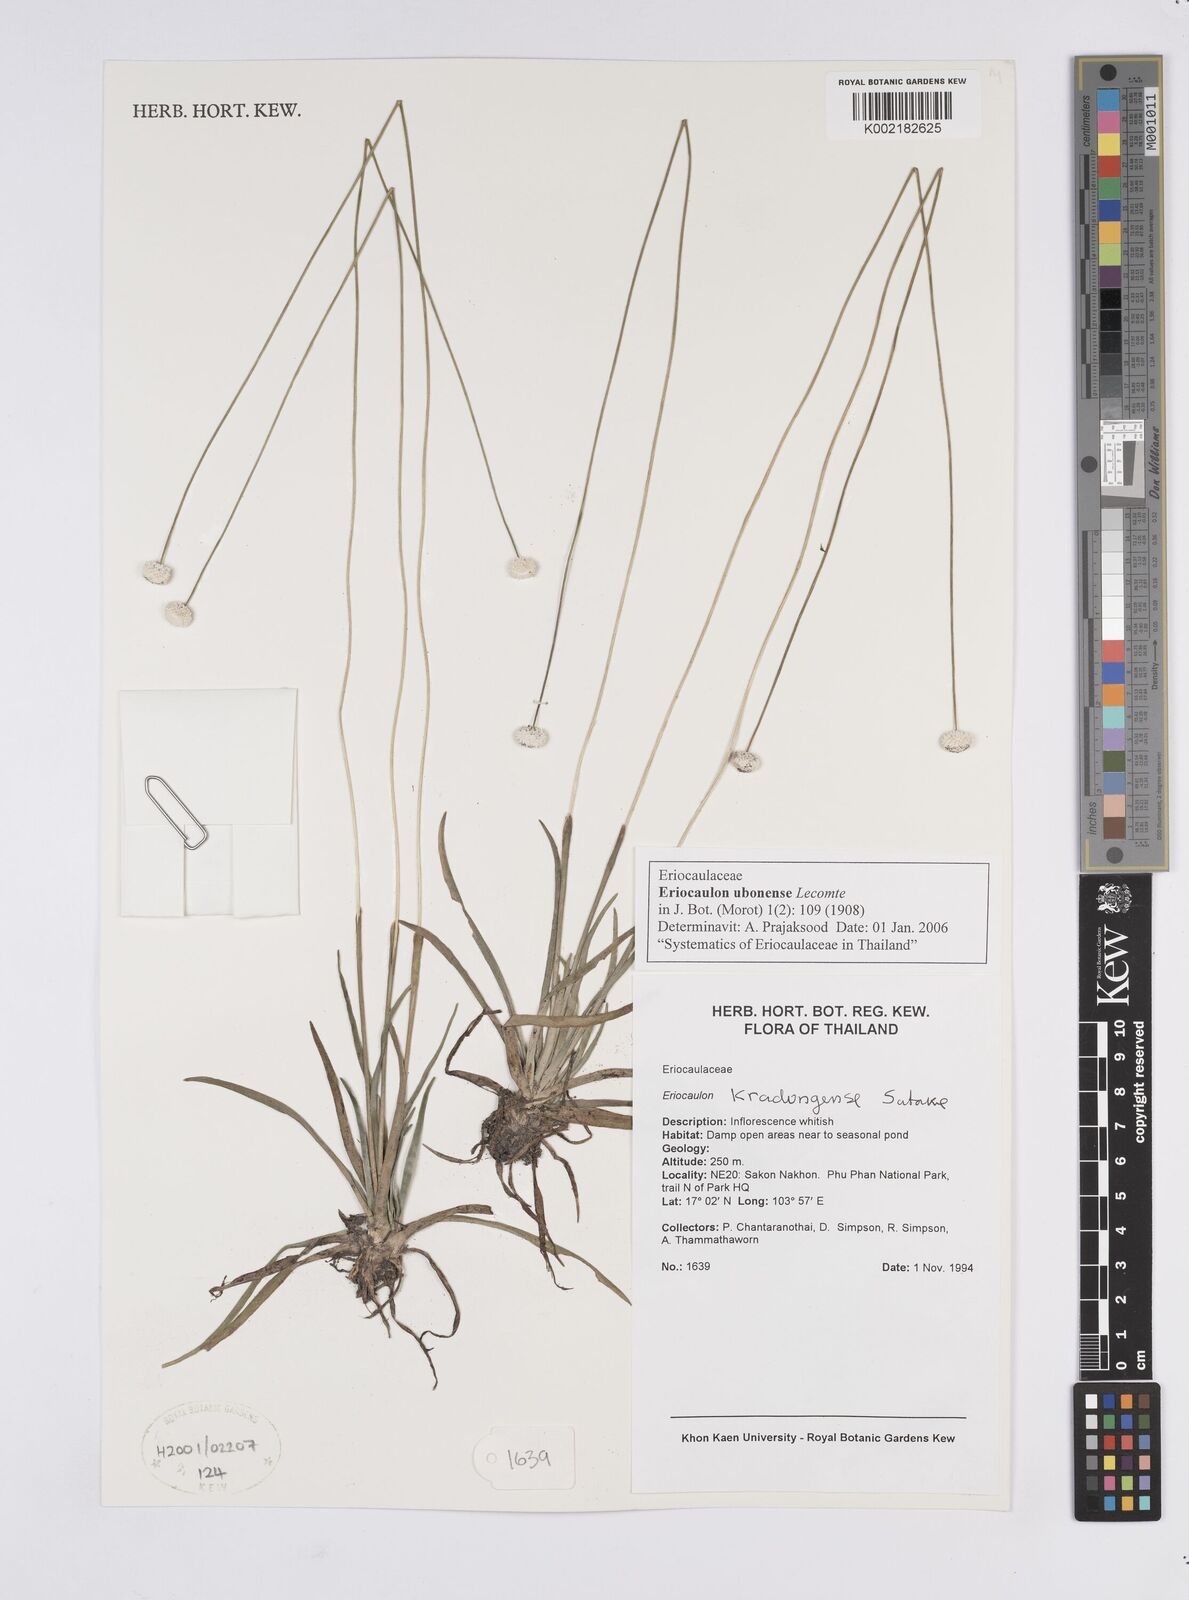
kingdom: Plantae
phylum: Tracheophyta
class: Liliopsida
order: Poales
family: Eriocaulaceae
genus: Eriocaulon
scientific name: Eriocaulon ubonense
